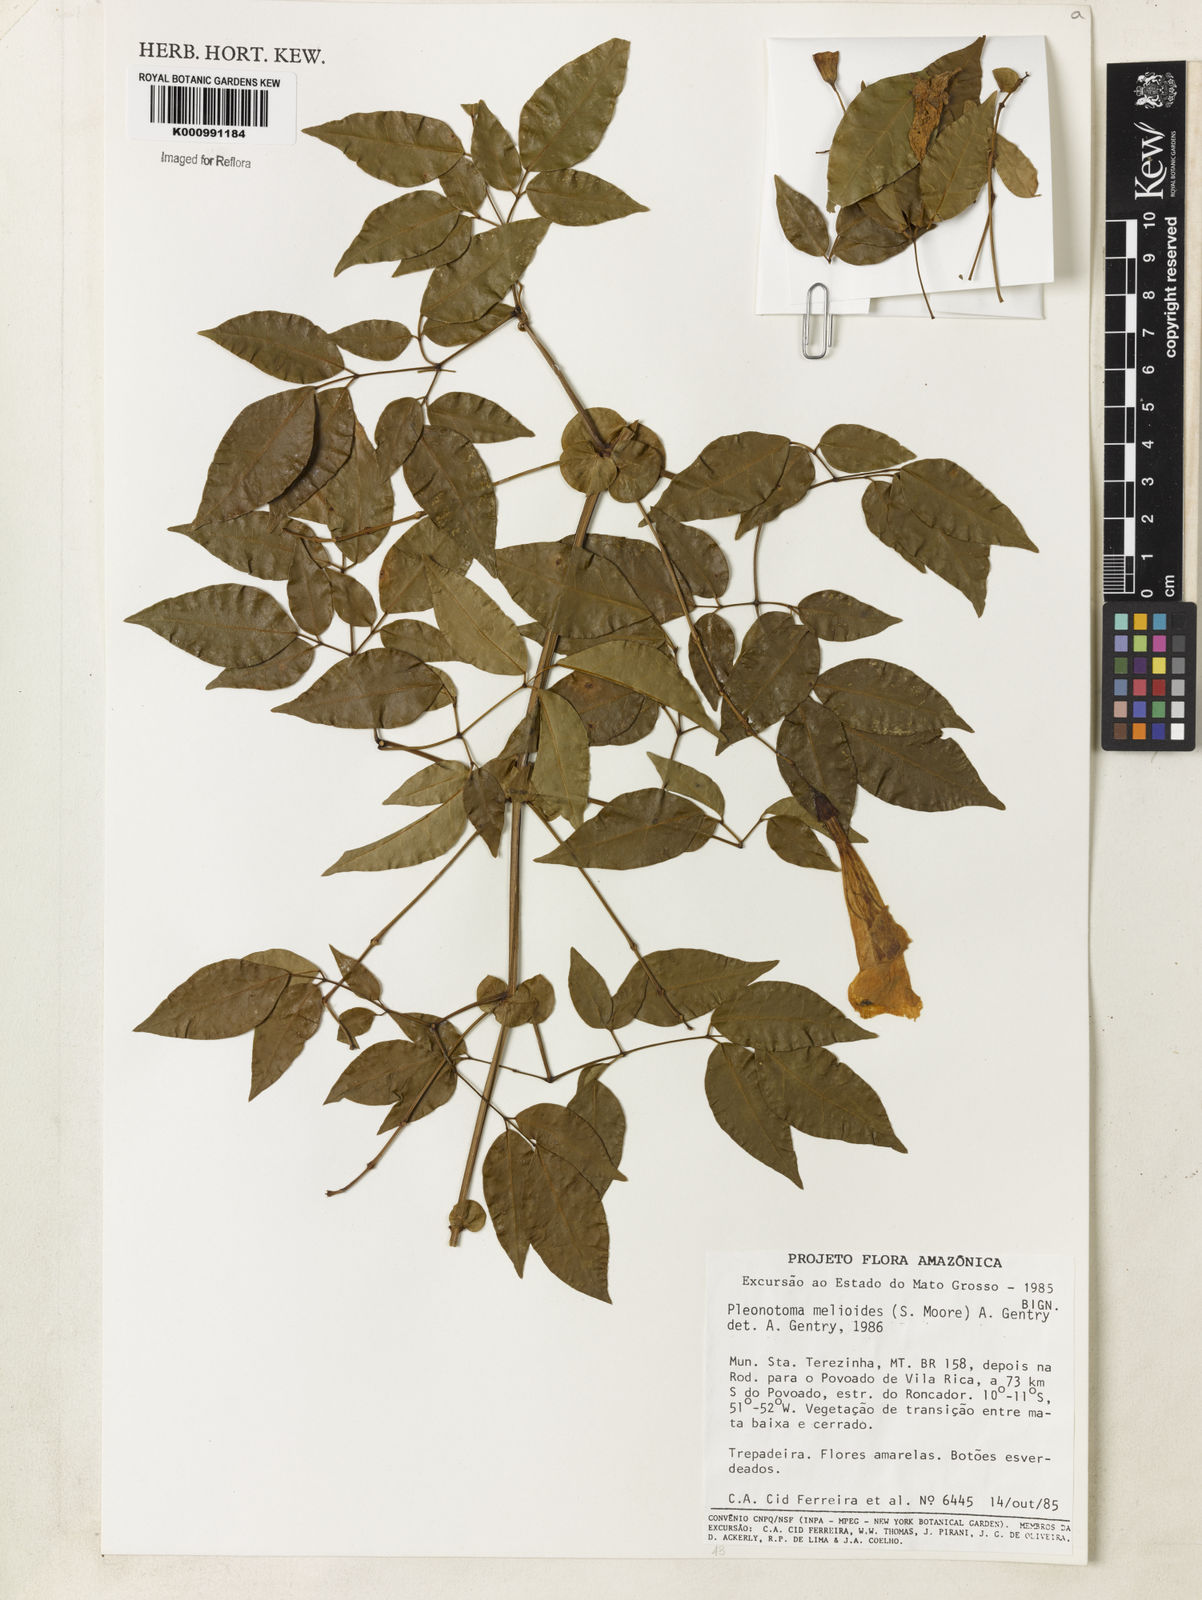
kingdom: Plantae
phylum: Tracheophyta
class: Magnoliopsida
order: Lamiales
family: Bignoniaceae
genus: Pleonotoma
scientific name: Pleonotoma melioides
